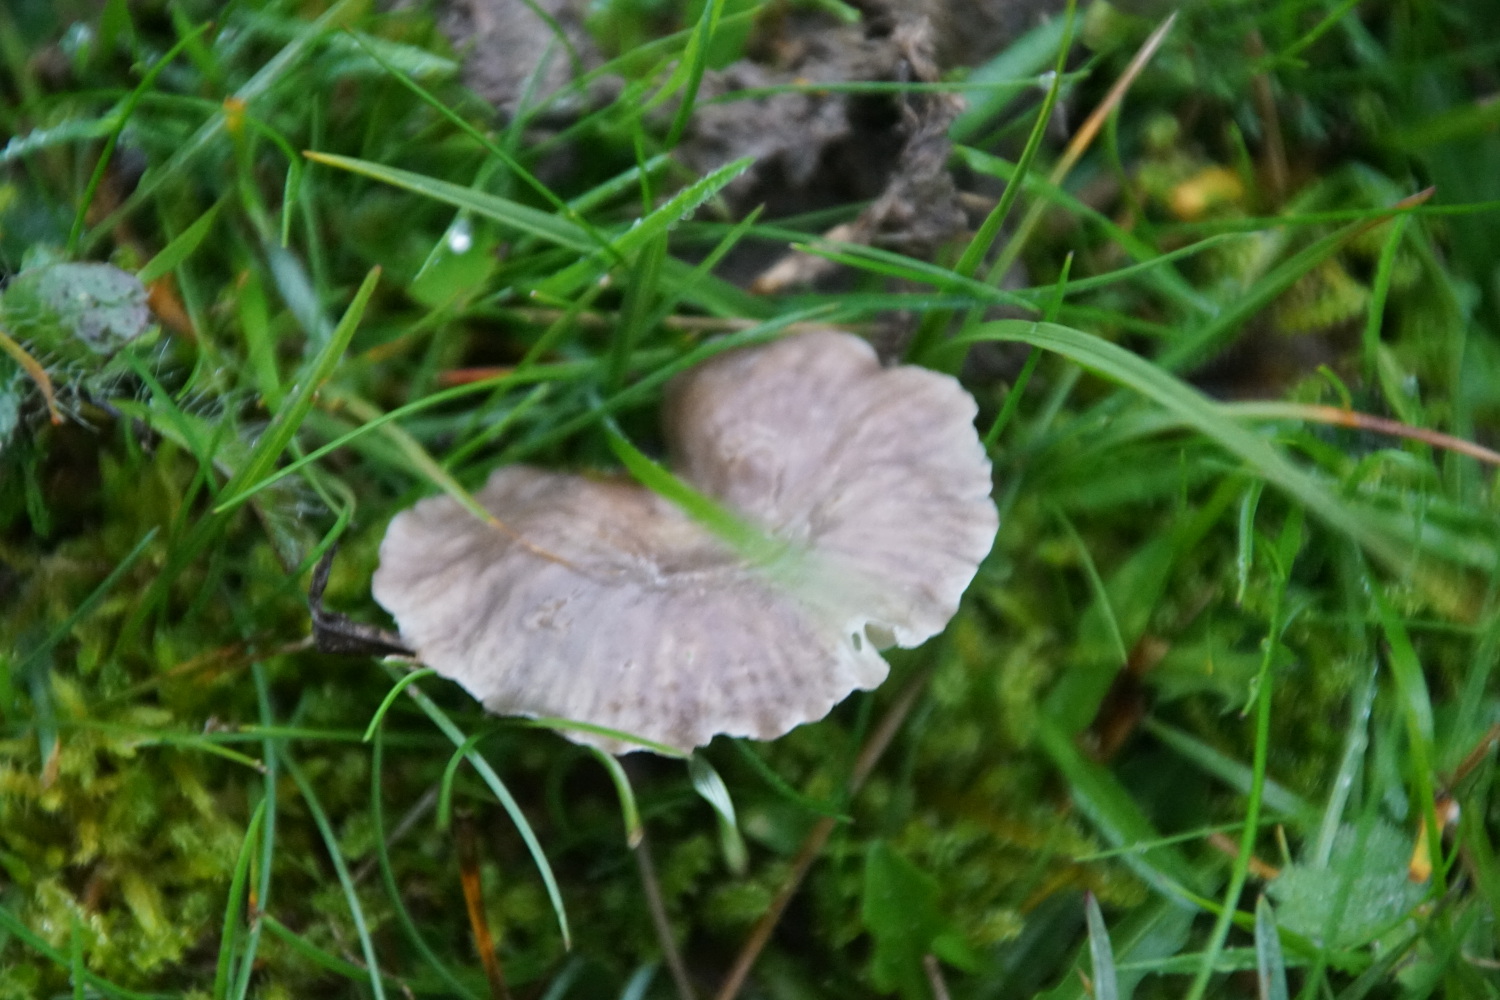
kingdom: Fungi
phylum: Basidiomycota
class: Agaricomycetes
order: Agaricales
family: Hygrophoraceae
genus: Cuphophyllus
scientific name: Cuphophyllus flavipes
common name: gulfodet vokshat
